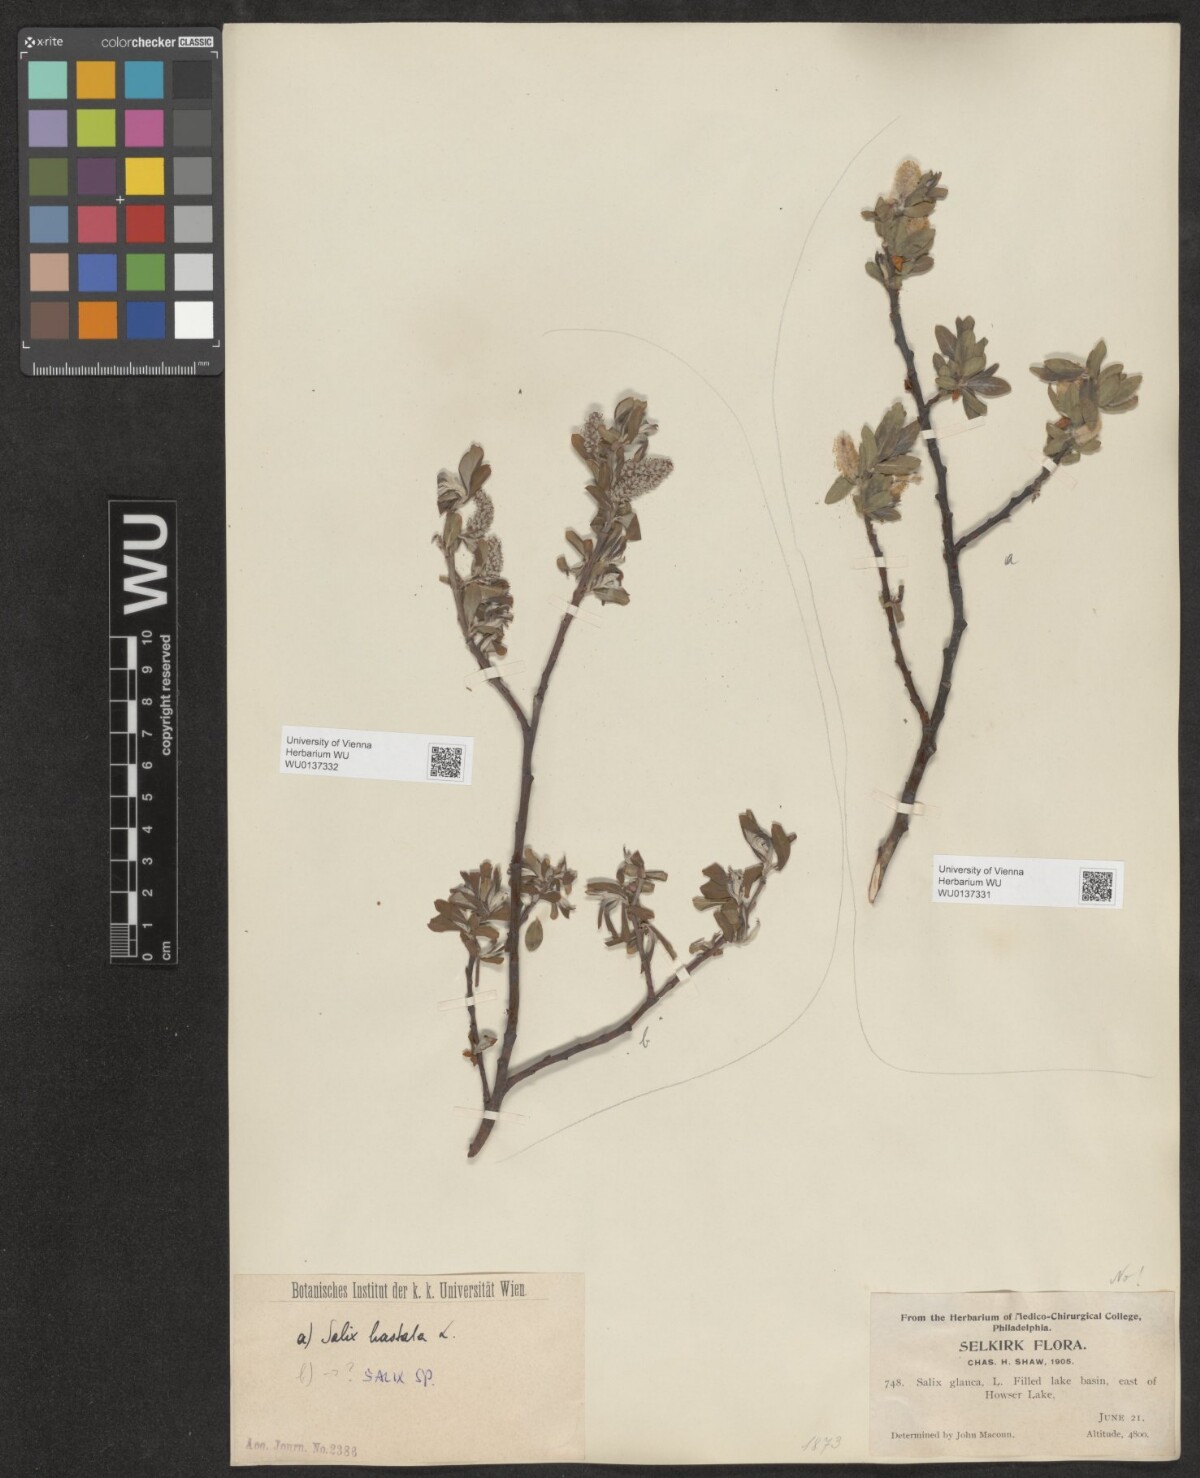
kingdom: Plantae
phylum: Tracheophyta
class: Magnoliopsida
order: Malpighiales
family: Salicaceae
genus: Salix
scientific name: Salix hastata
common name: Halberd willow
